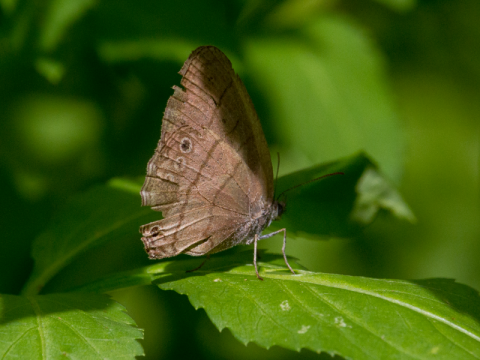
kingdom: Animalia
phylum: Arthropoda
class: Insecta
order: Lepidoptera
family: Nymphalidae
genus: Hermeuptychia
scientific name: Hermeuptychia hermes
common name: Hermes Satyr
